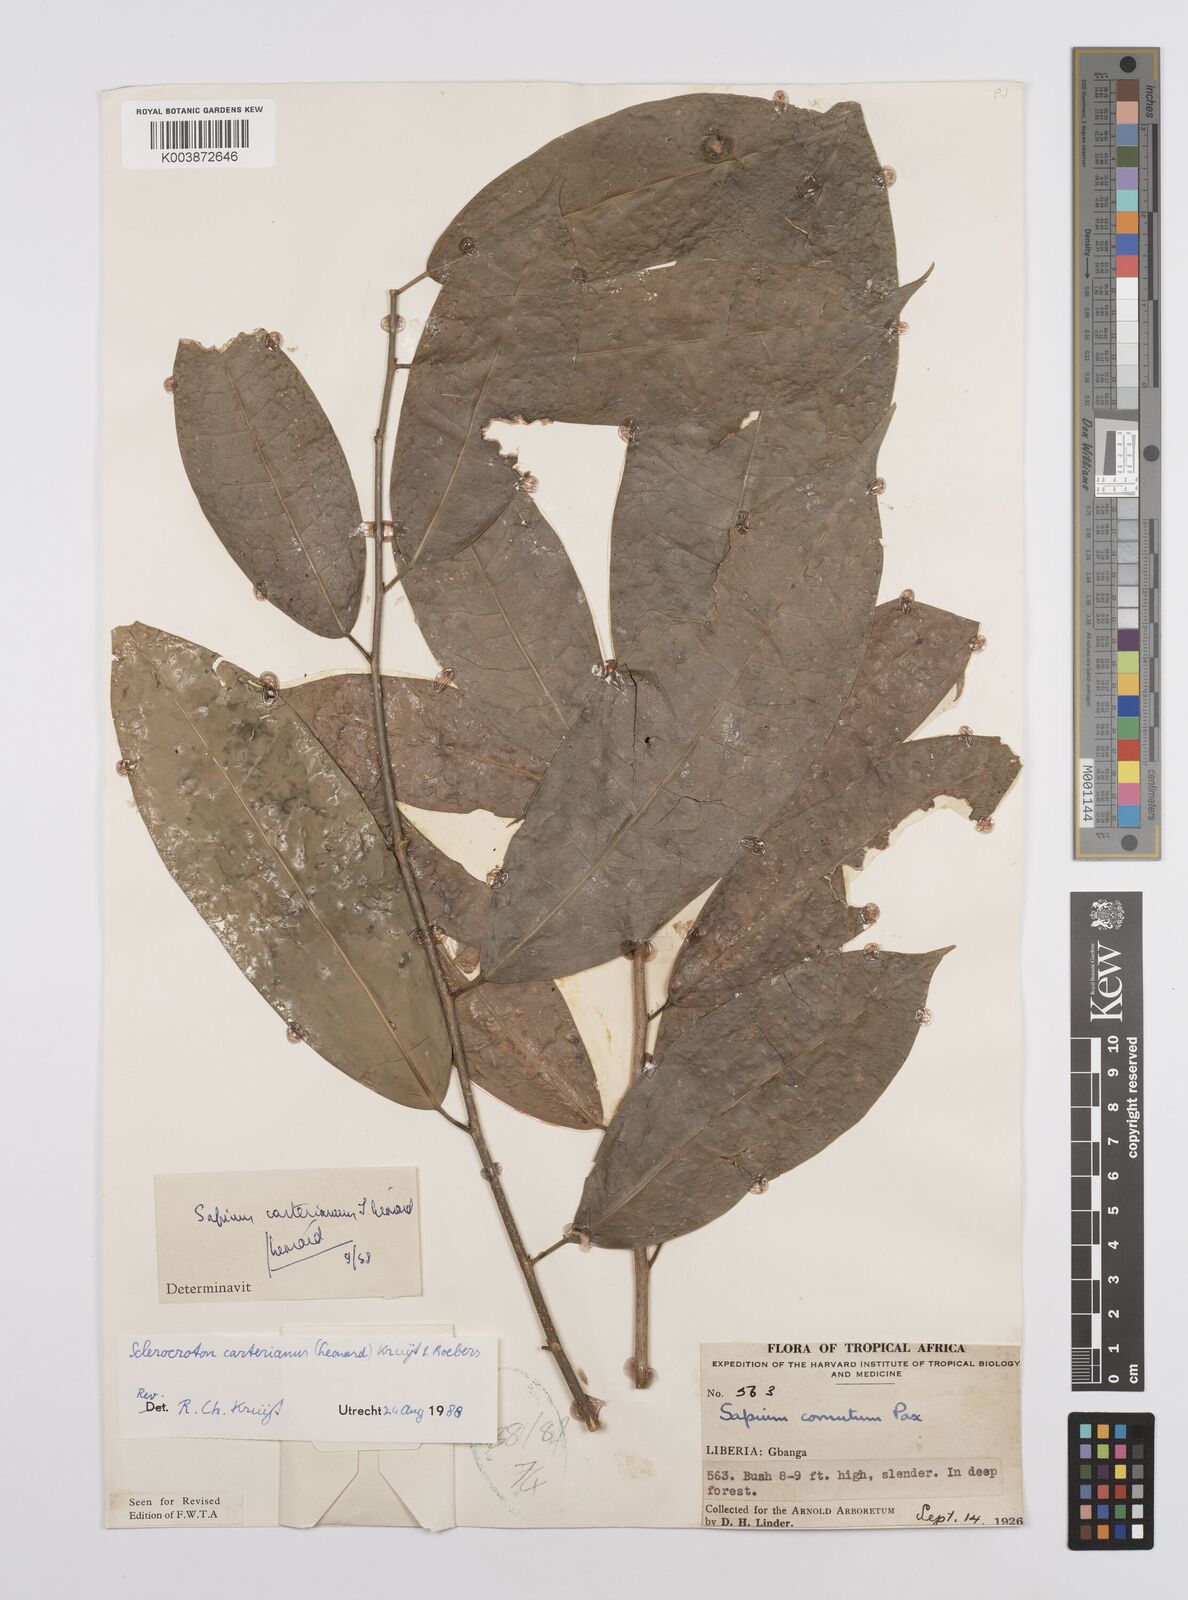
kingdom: Plantae
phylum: Tracheophyta
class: Magnoliopsida
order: Malpighiales
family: Euphorbiaceae
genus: Sclerocroton
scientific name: Sclerocroton carterianus
